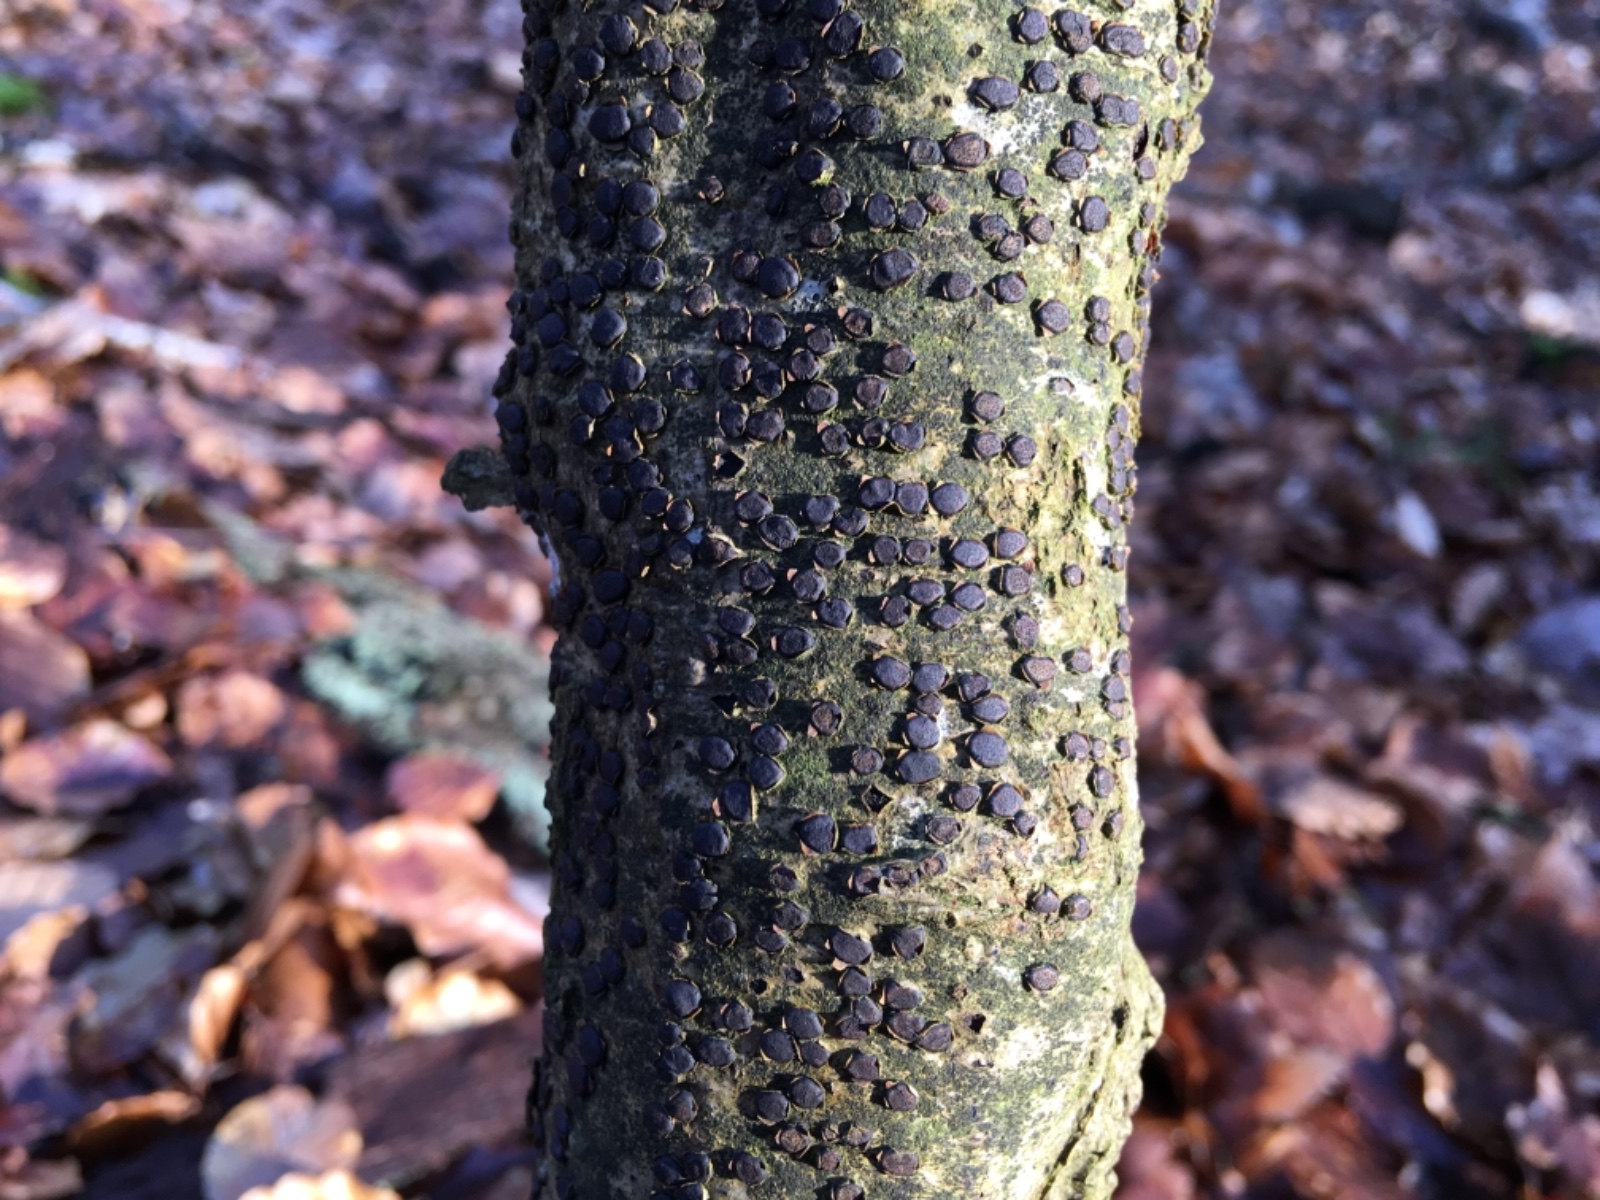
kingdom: Fungi
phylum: Ascomycota
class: Sordariomycetes
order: Xylariales
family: Diatrypaceae
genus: Diatrype
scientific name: Diatrype disciformis
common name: kant-kulskorpe
